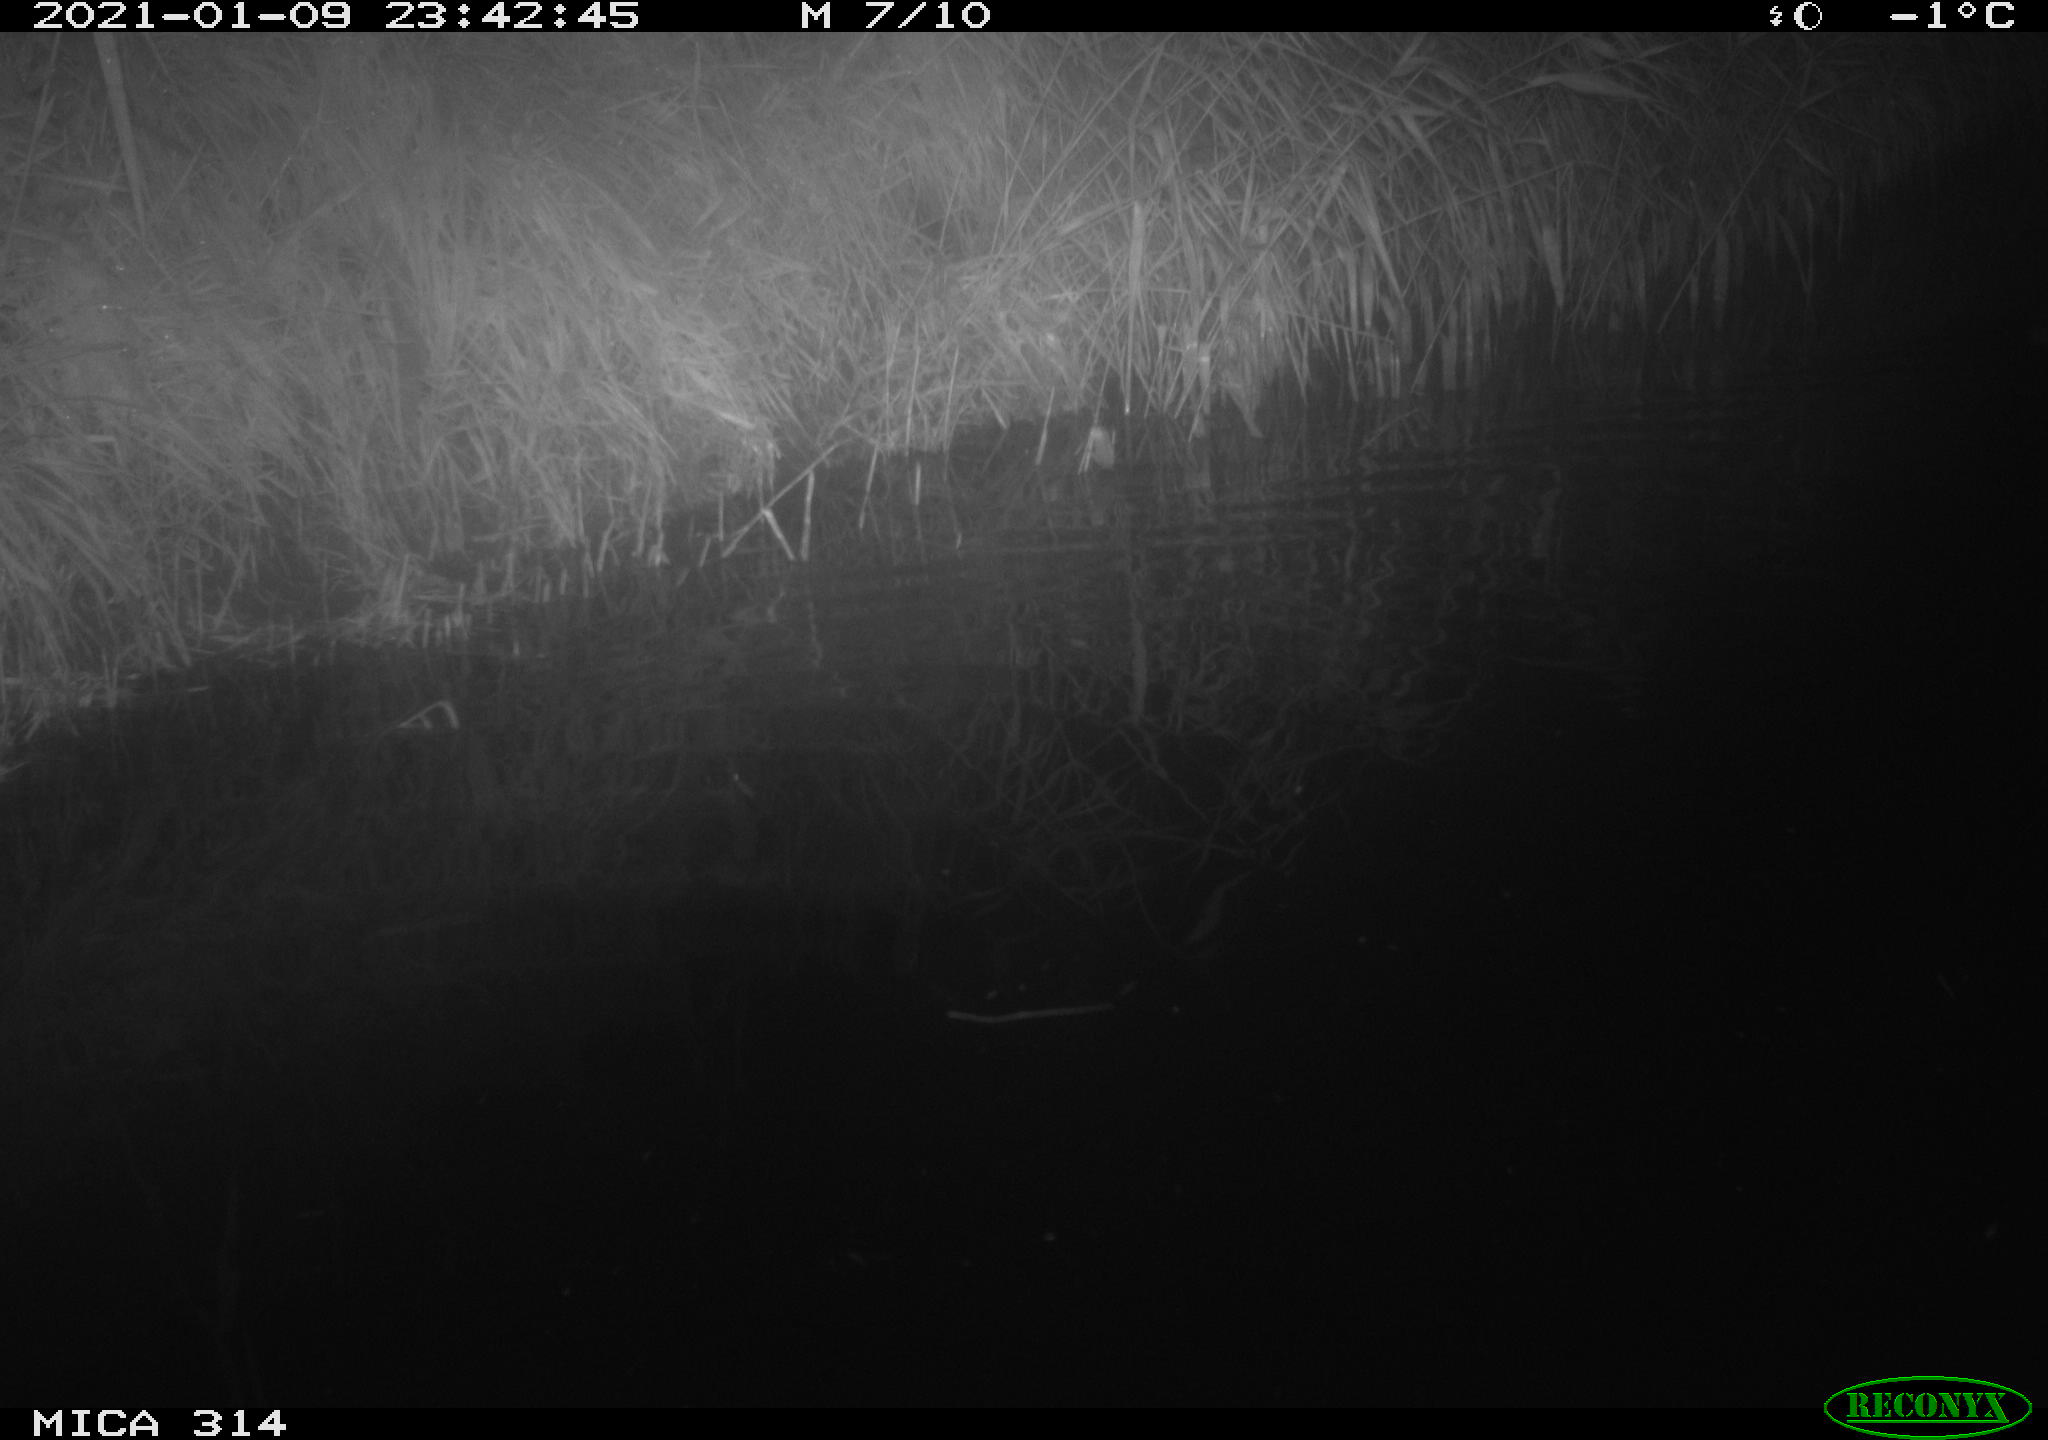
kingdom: Animalia
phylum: Chordata
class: Mammalia
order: Rodentia
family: Muridae
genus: Rattus
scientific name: Rattus norvegicus
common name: Brown rat
